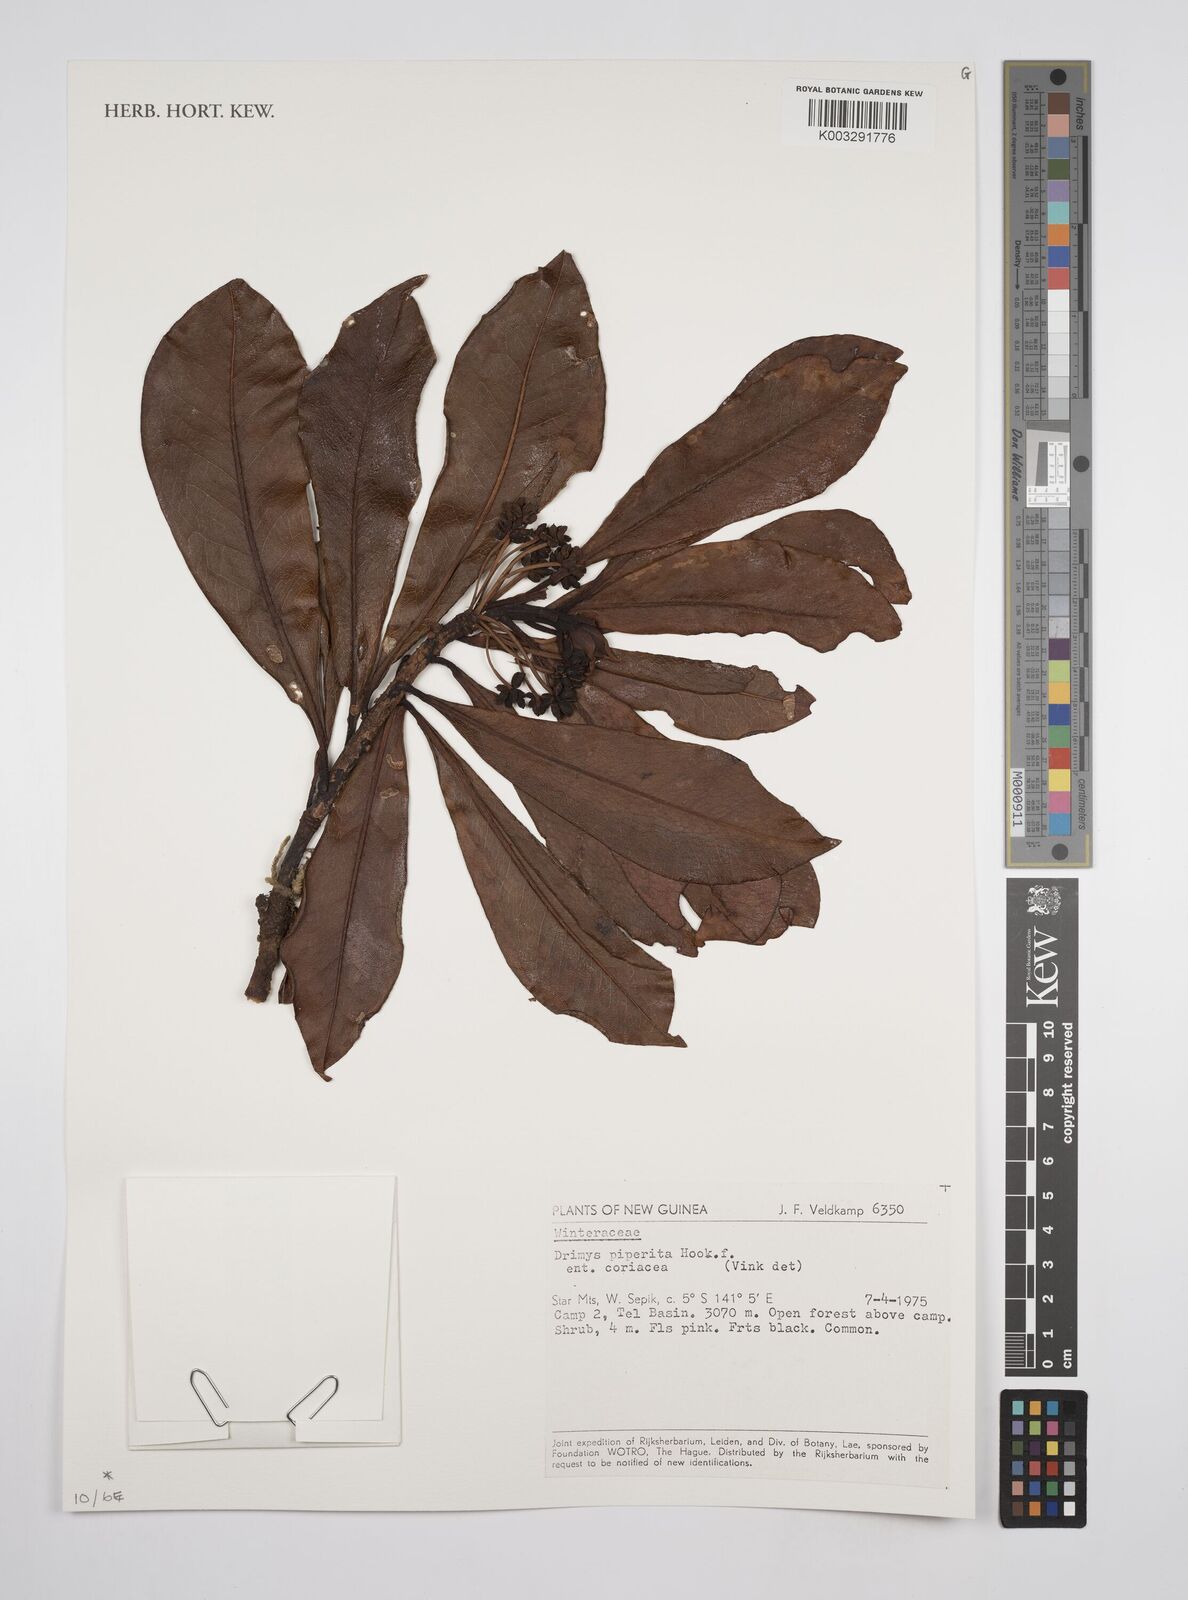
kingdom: Plantae
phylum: Tracheophyta
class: Magnoliopsida
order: Canellales
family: Winteraceae
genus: Drimys
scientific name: Drimys piperita
